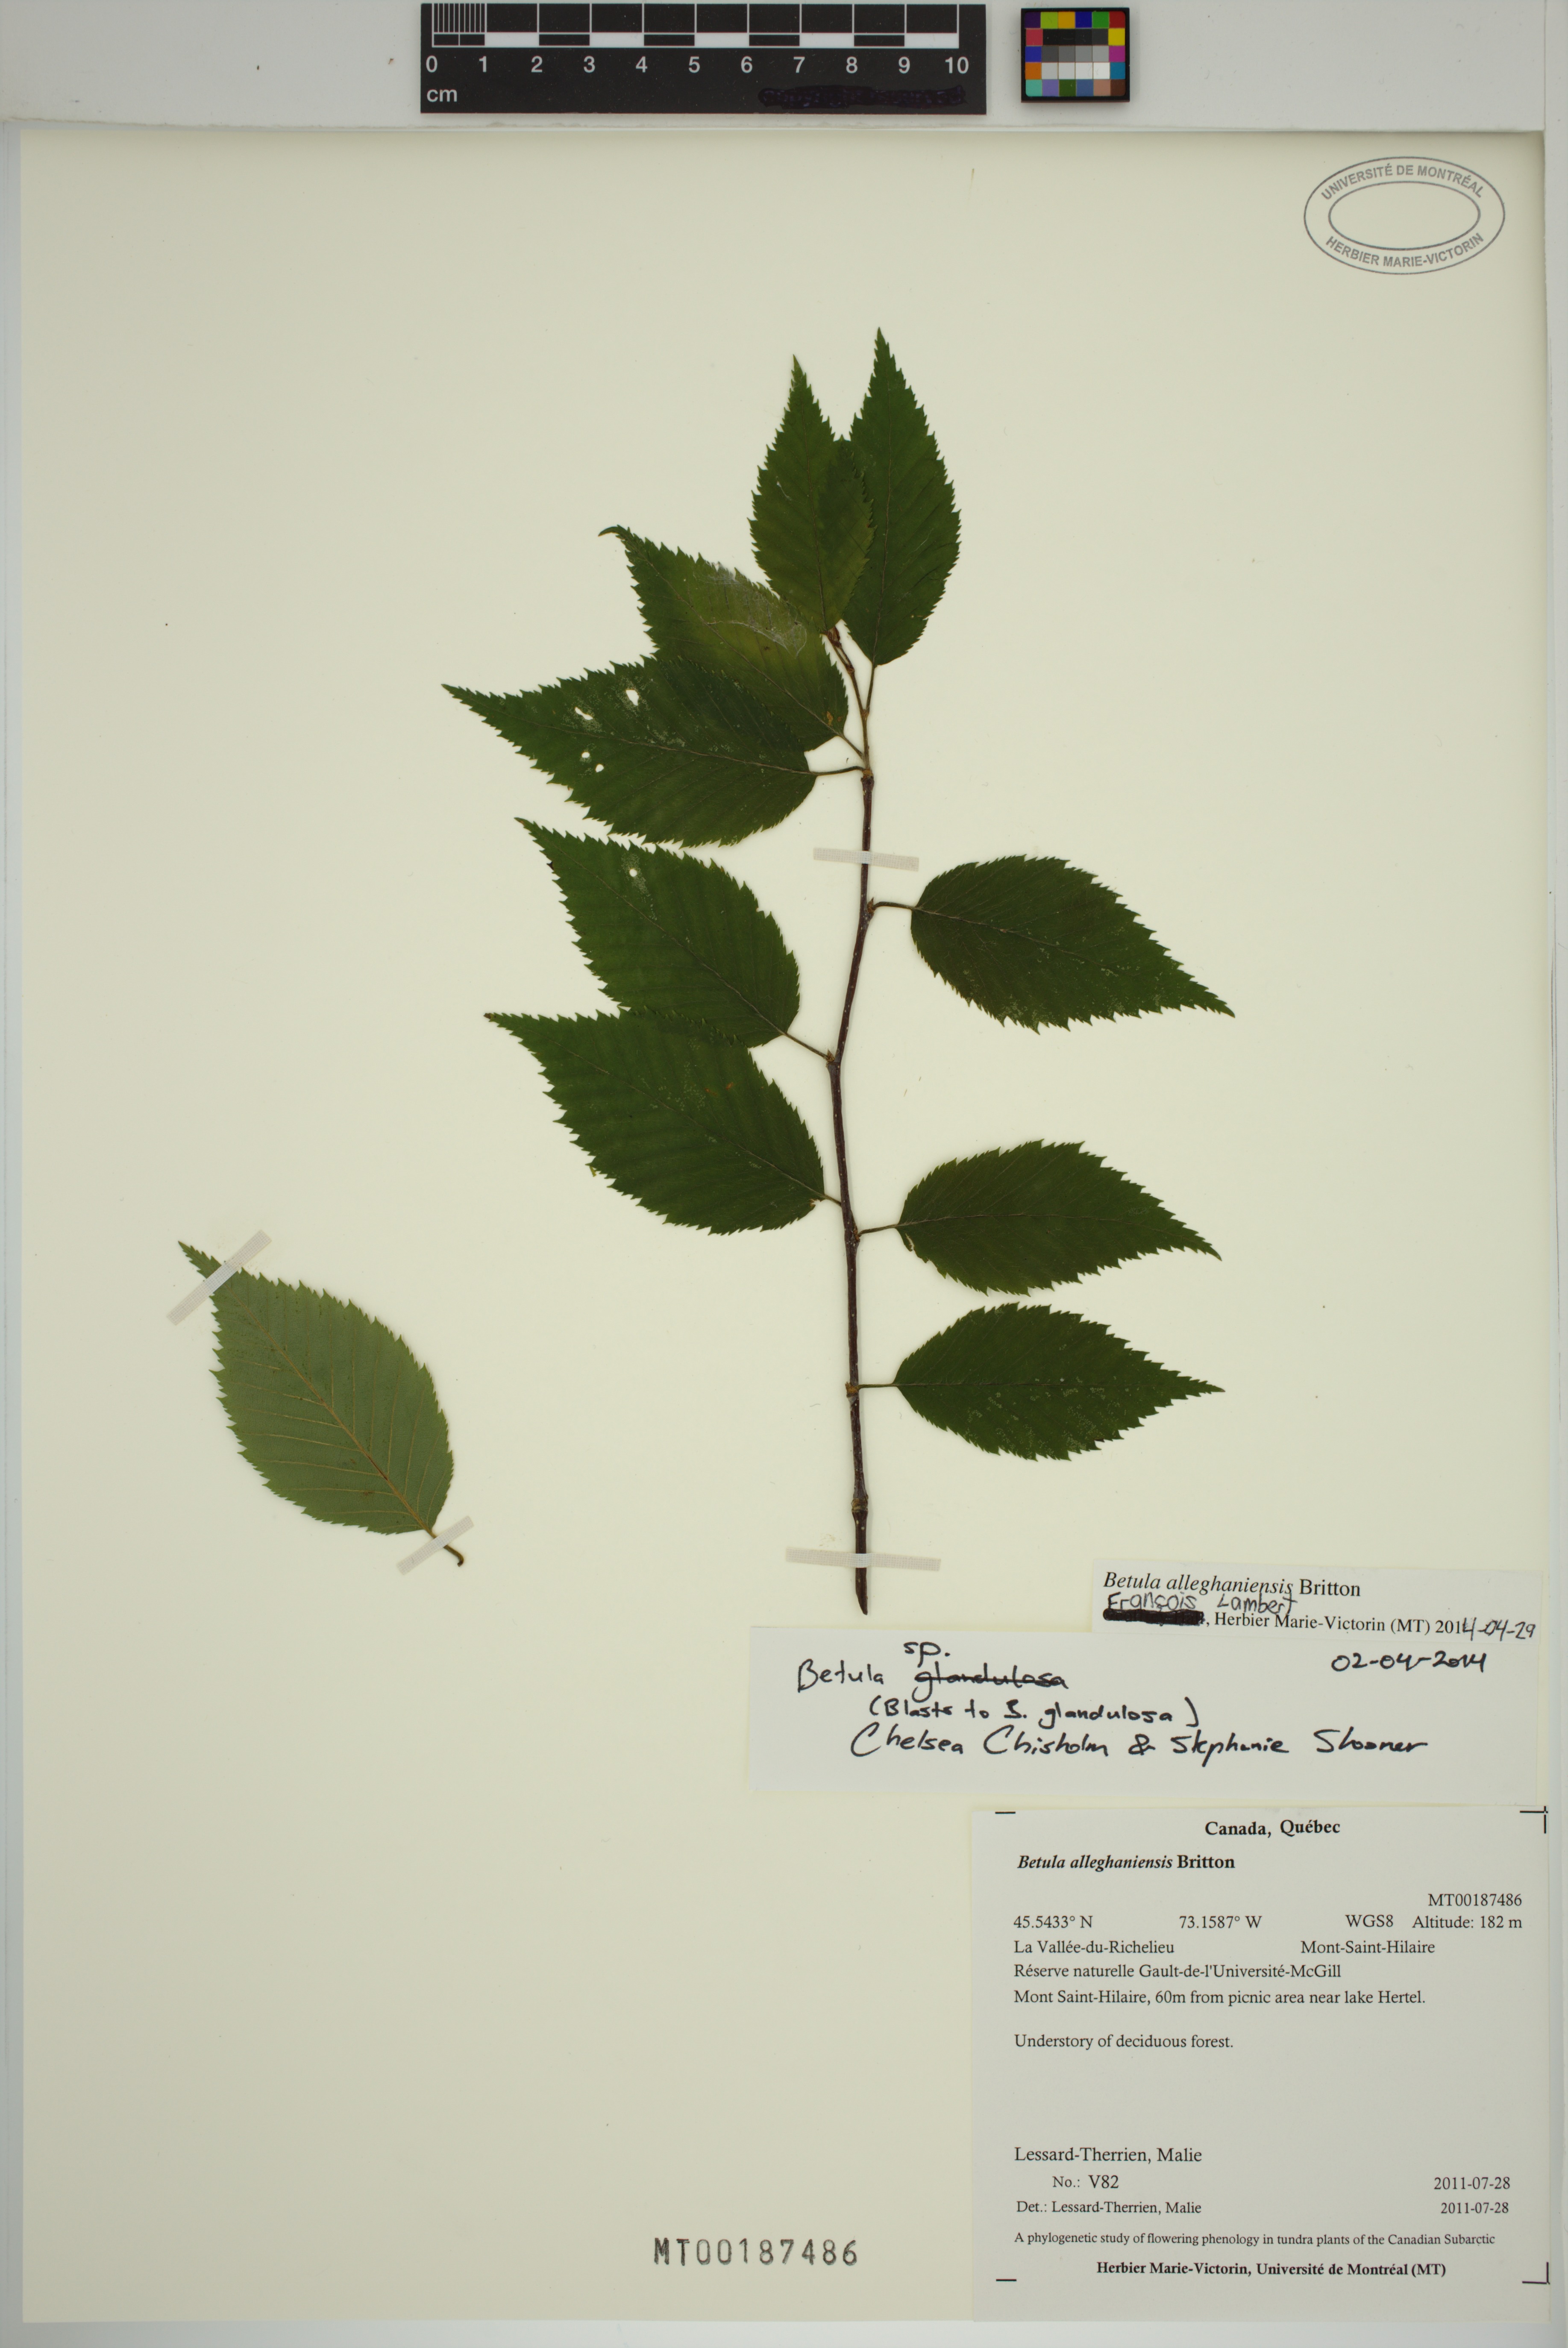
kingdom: Plantae
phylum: Tracheophyta
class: Magnoliopsida
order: Fagales
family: Betulaceae
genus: Betula
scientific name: Betula alleghaniensis
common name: Yellow birch
